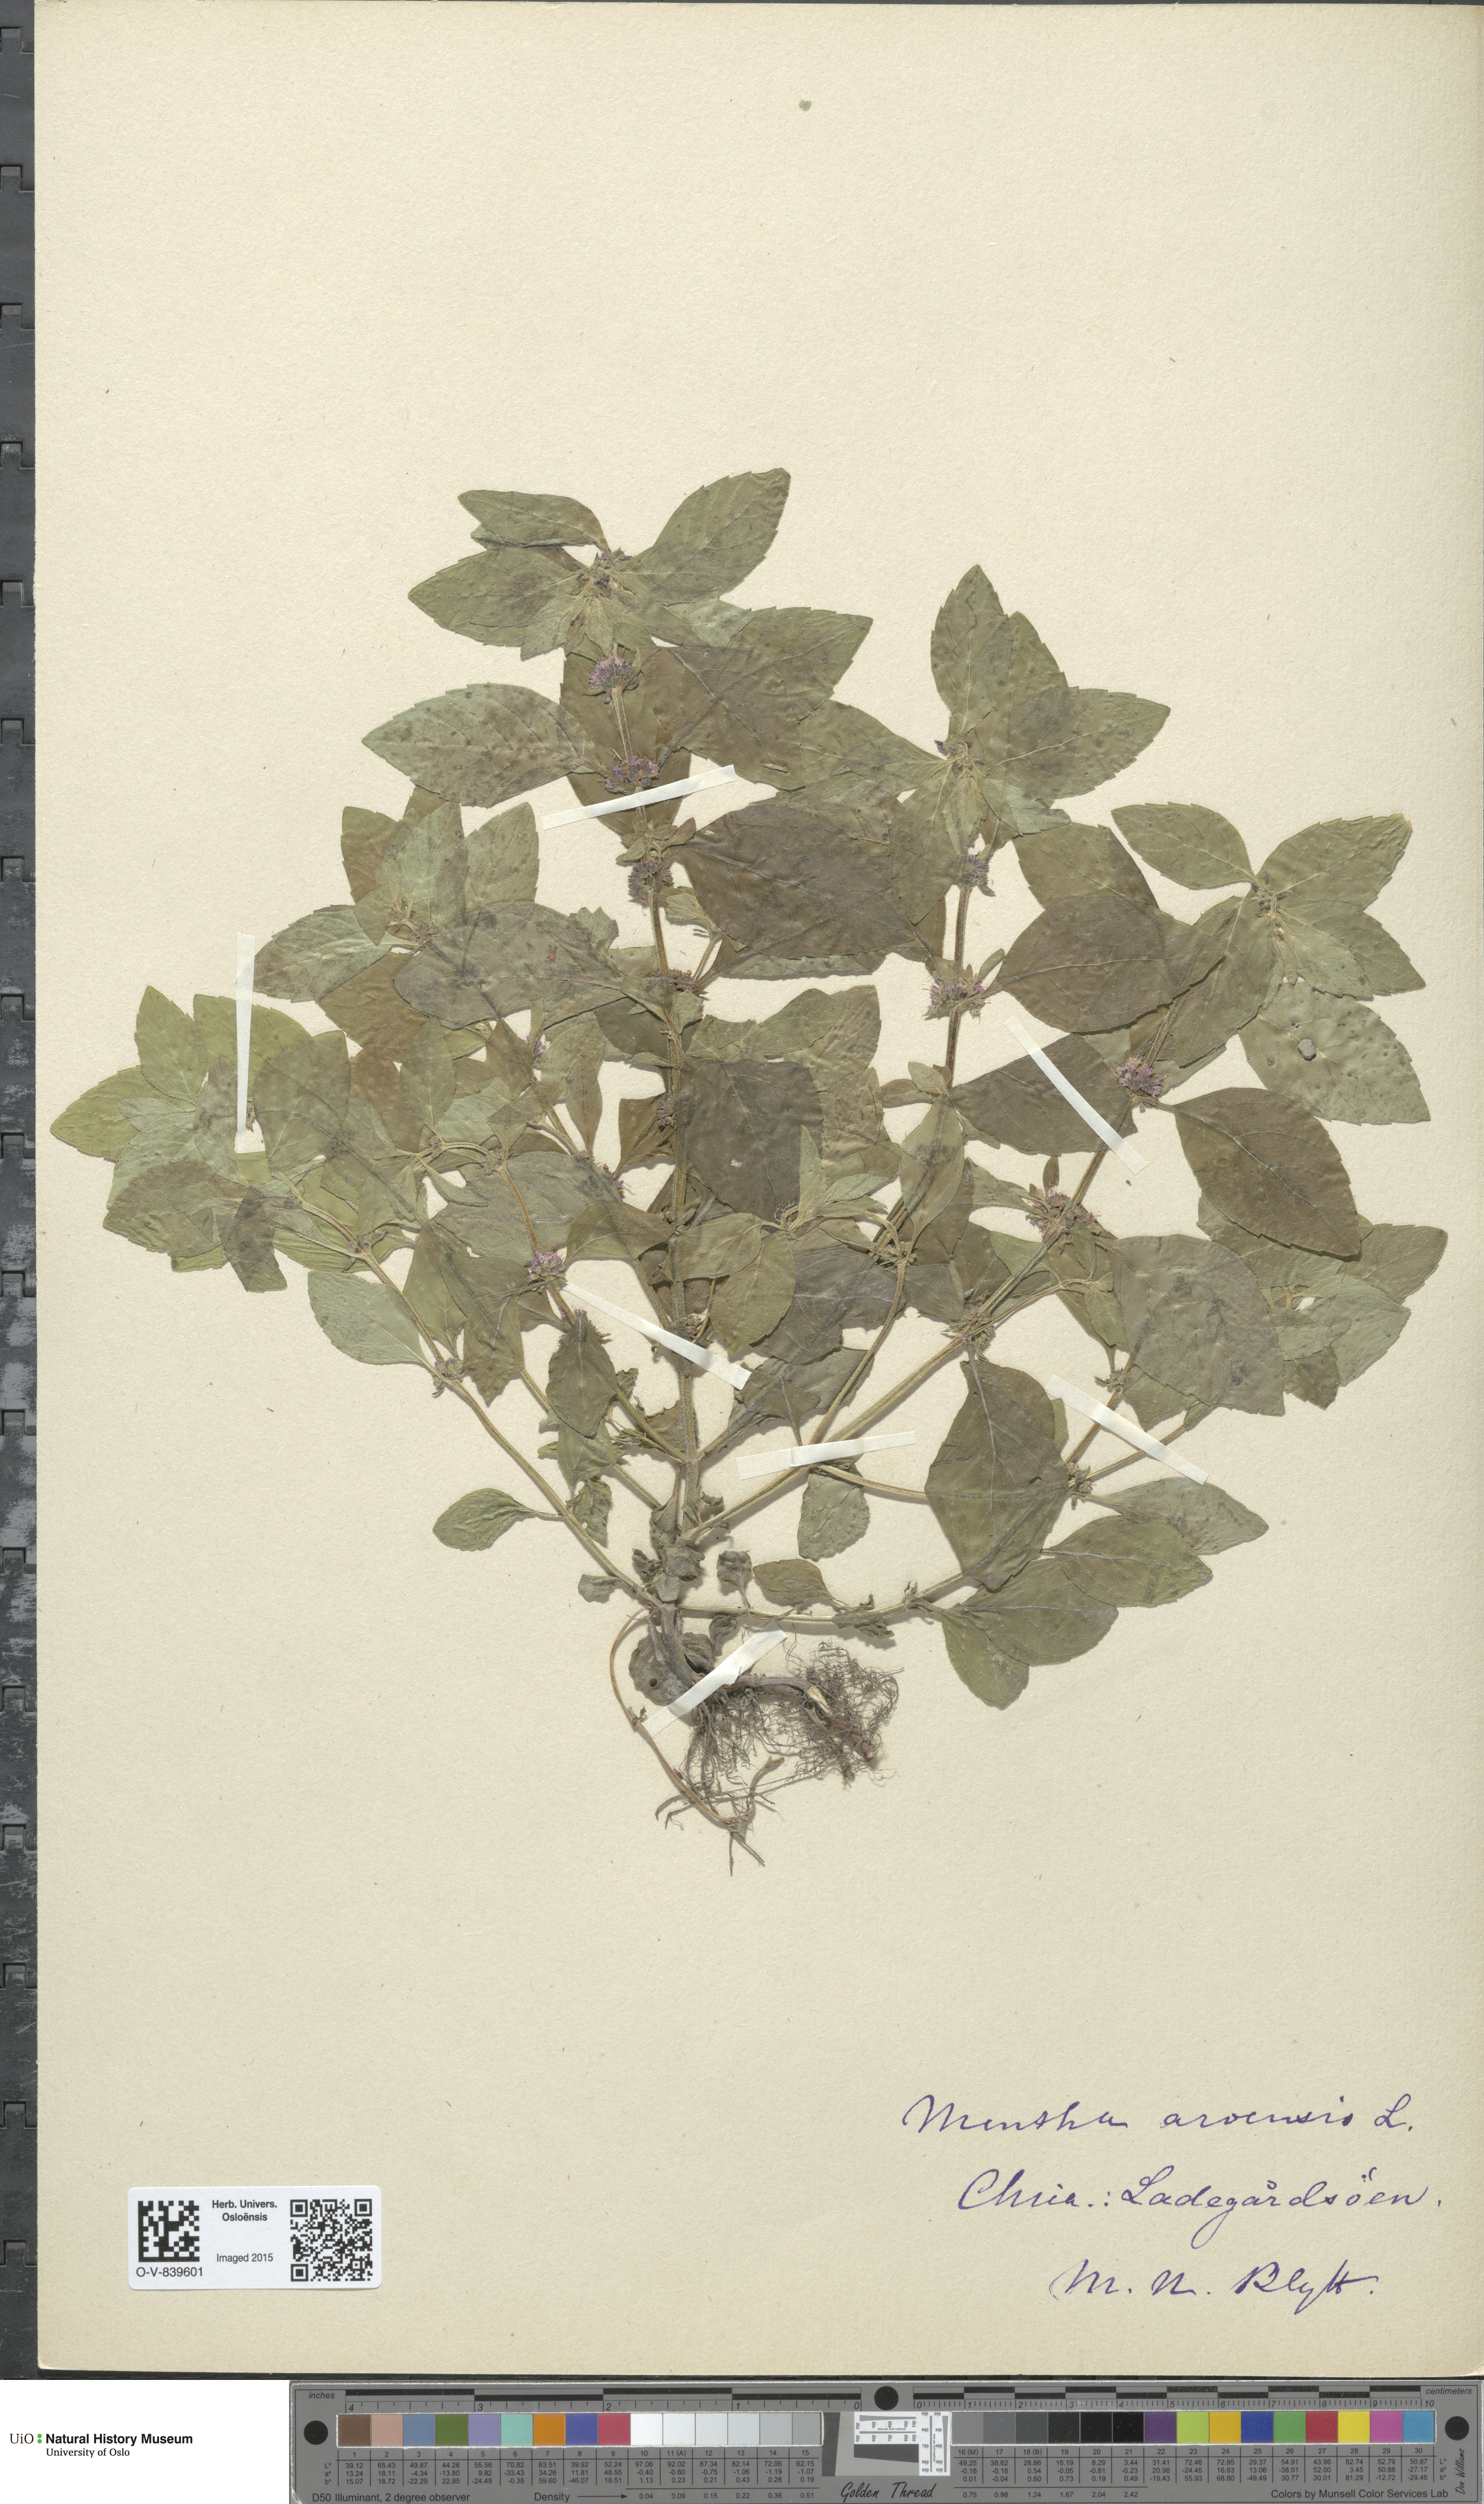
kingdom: Plantae
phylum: Tracheophyta
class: Magnoliopsida
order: Lamiales
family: Lamiaceae
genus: Mentha
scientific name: Mentha arvensis
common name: Corn mint
